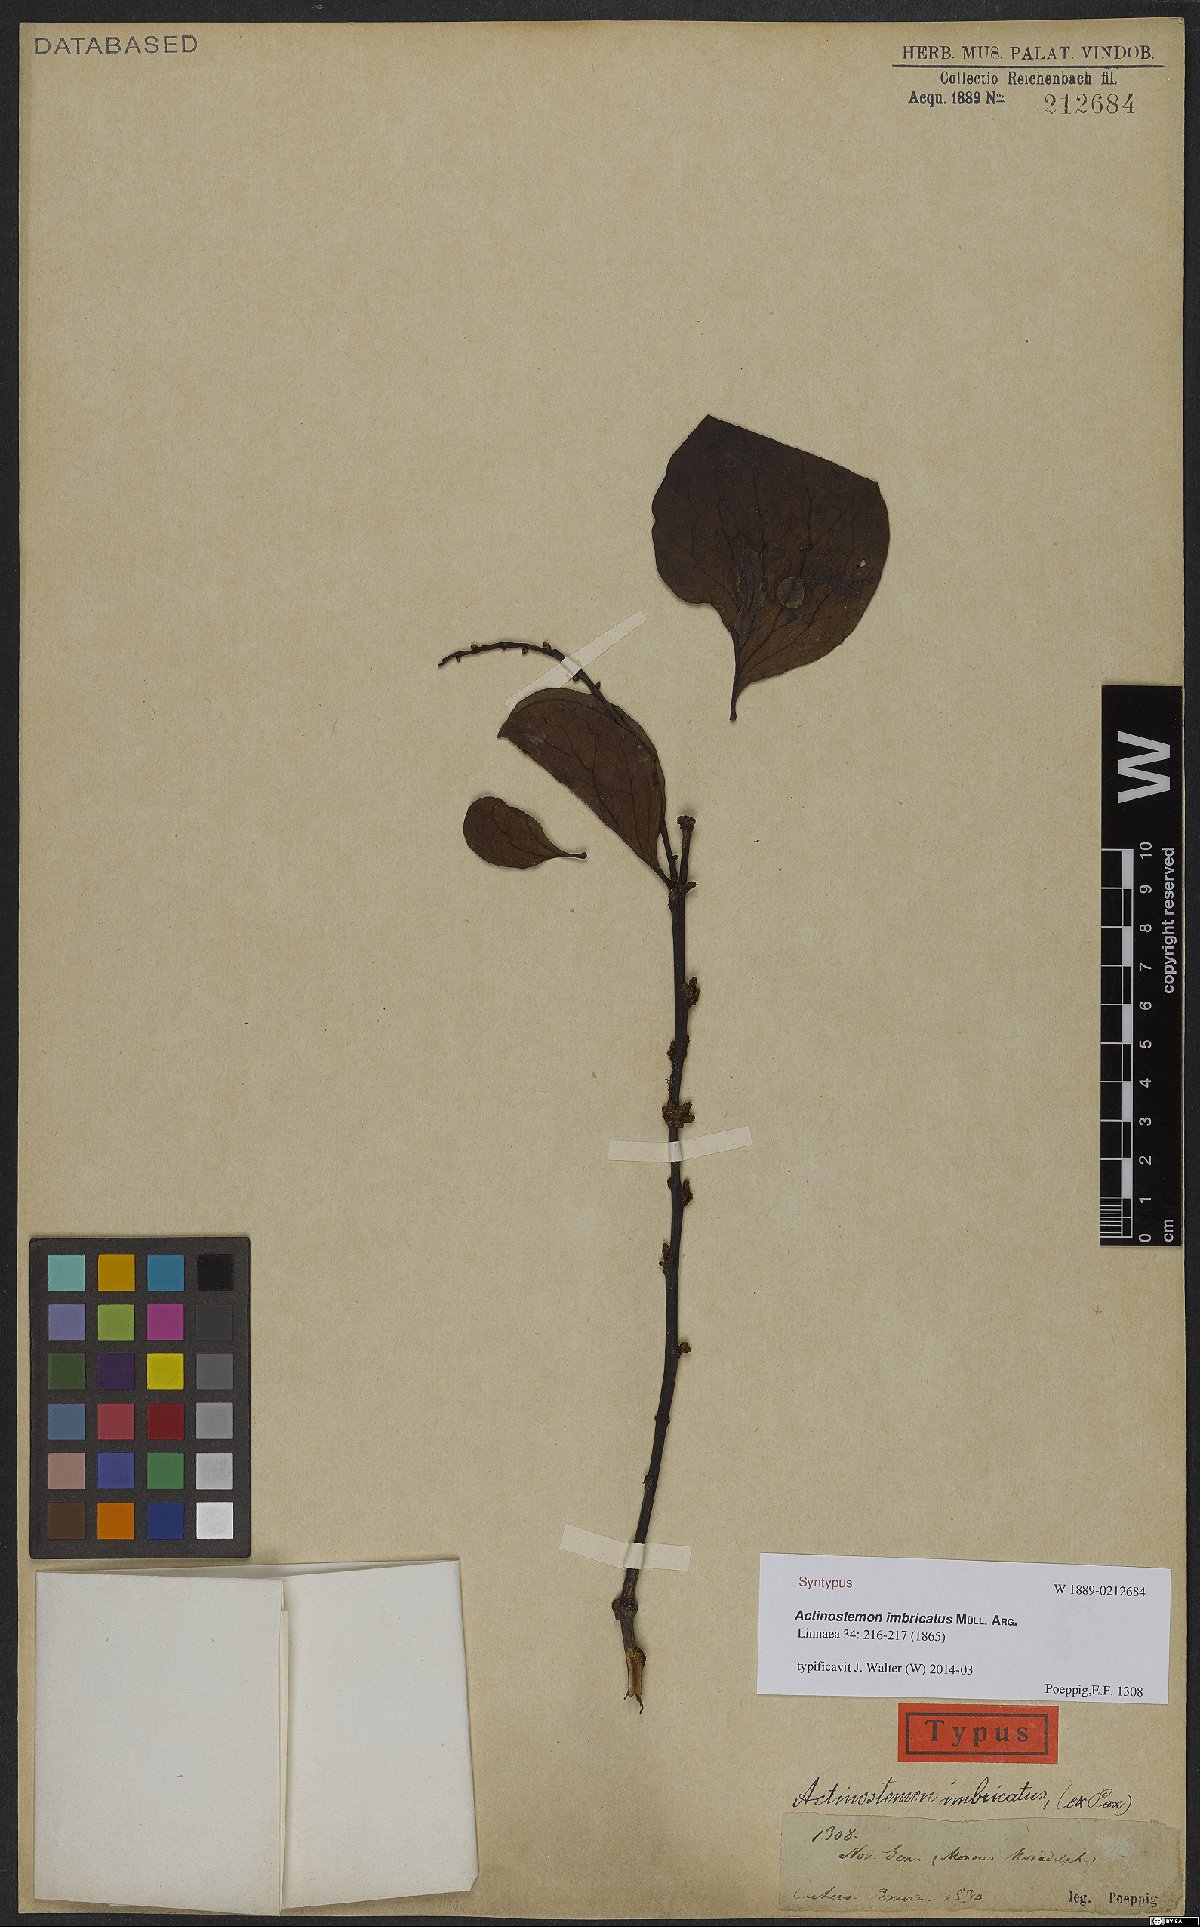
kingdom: Plantae
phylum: Tracheophyta
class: Magnoliopsida
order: Malpighiales
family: Euphorbiaceae
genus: Actinostemon
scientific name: Actinostemon imbricatus
